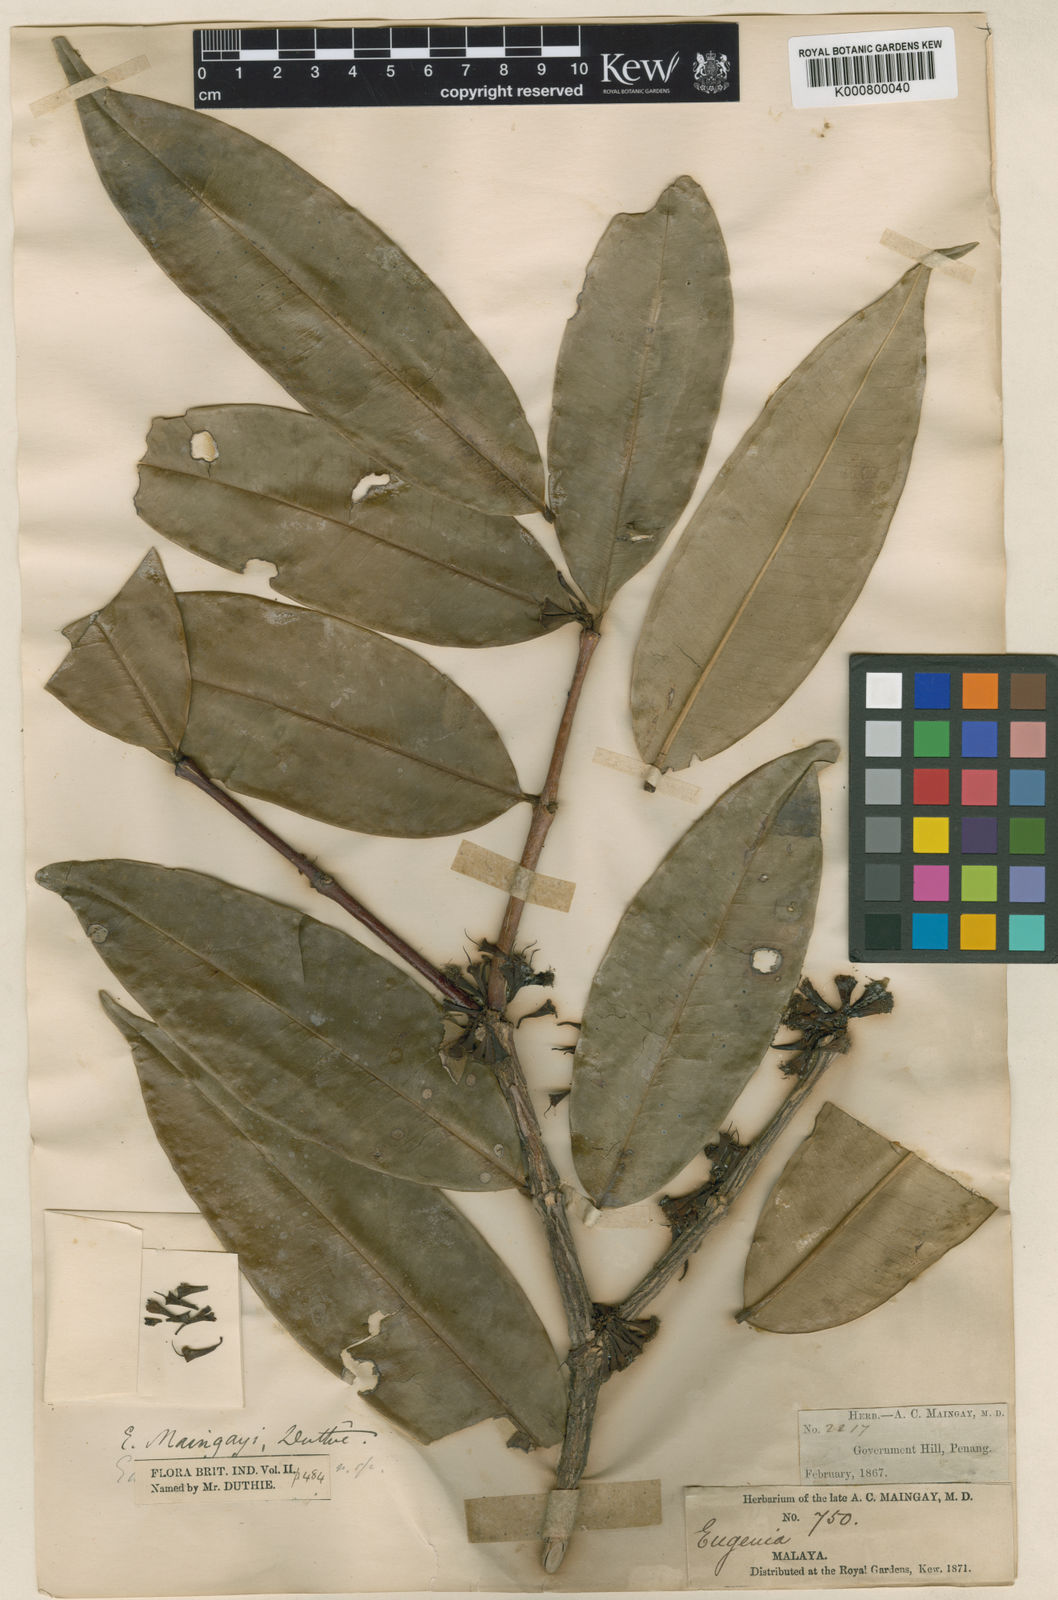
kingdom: Plantae
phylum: Tracheophyta
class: Magnoliopsida
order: Myrtales
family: Myrtaceae
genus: Syzygium
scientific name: Syzygium claviflorum
